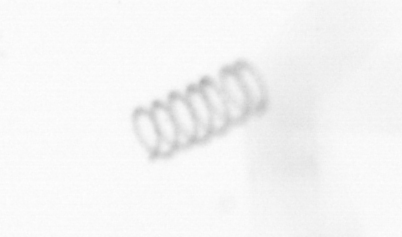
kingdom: Chromista
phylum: Ochrophyta
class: Bacillariophyceae
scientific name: Bacillariophyceae
